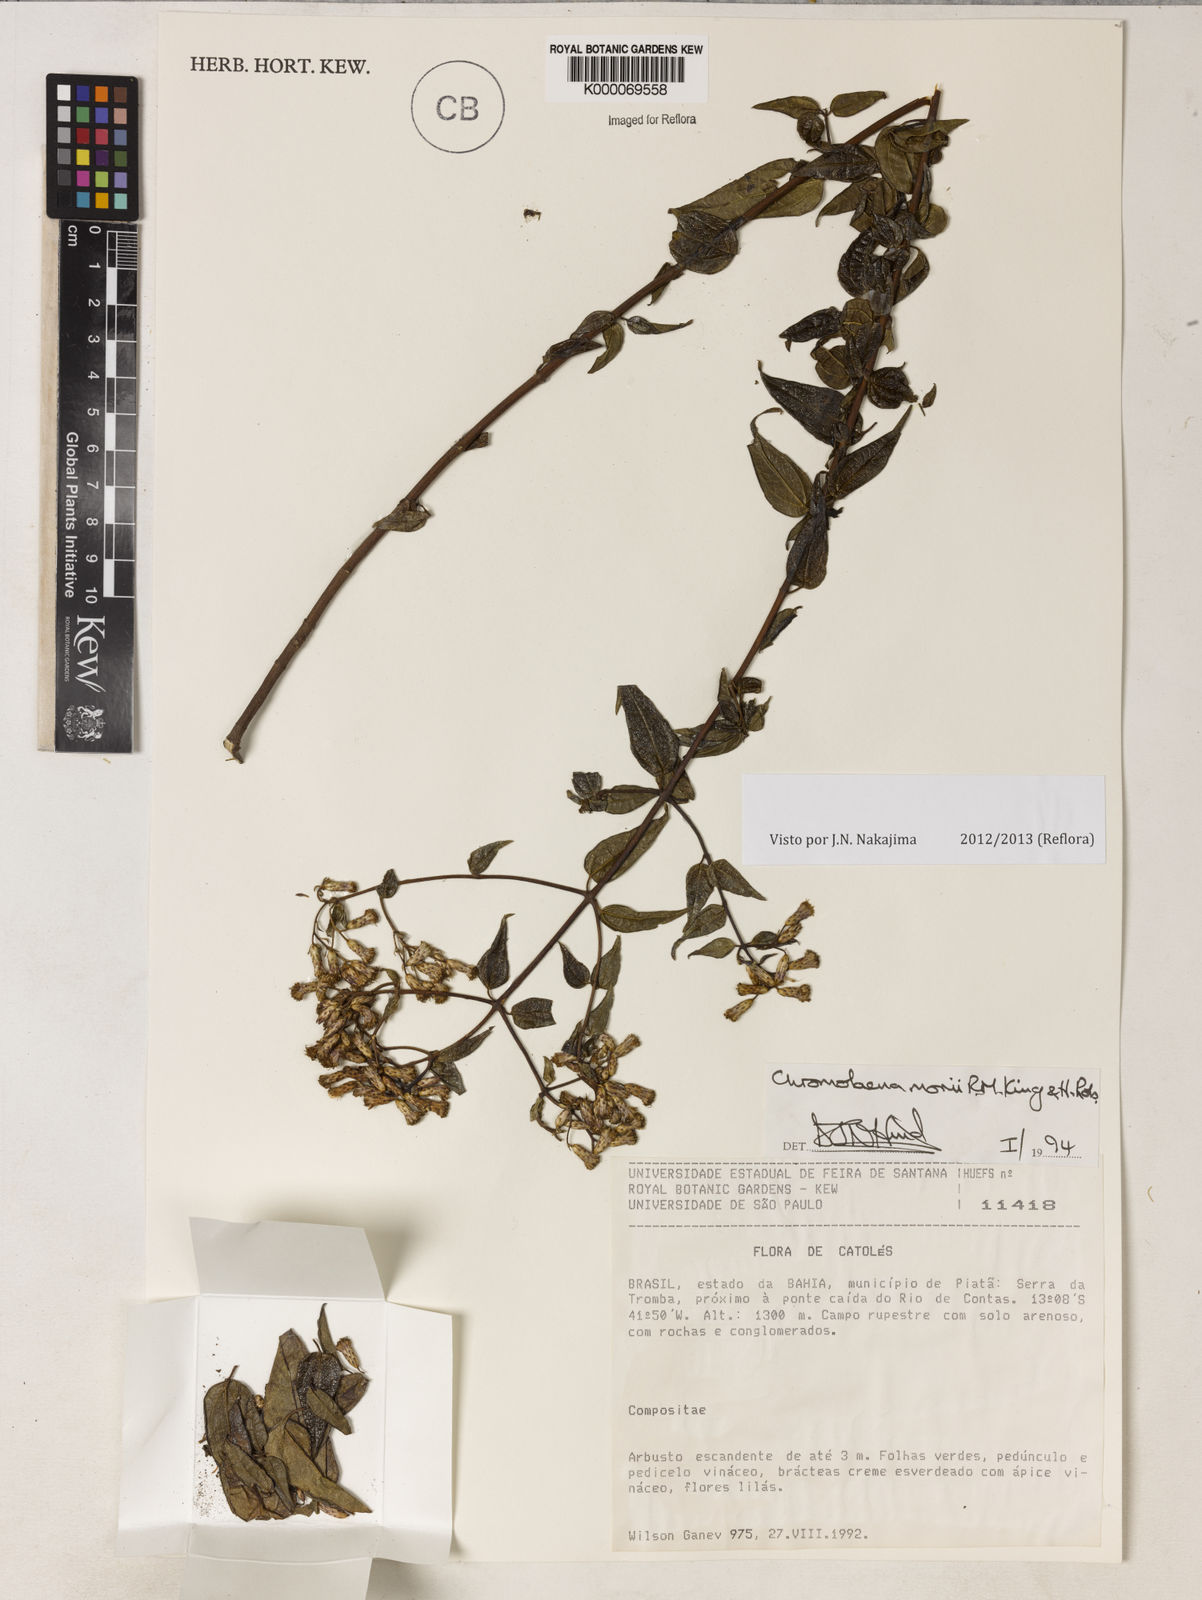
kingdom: Plantae
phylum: Tracheophyta
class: Magnoliopsida
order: Asterales
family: Asteraceae
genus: Chromolaena
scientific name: Chromolaena morii
